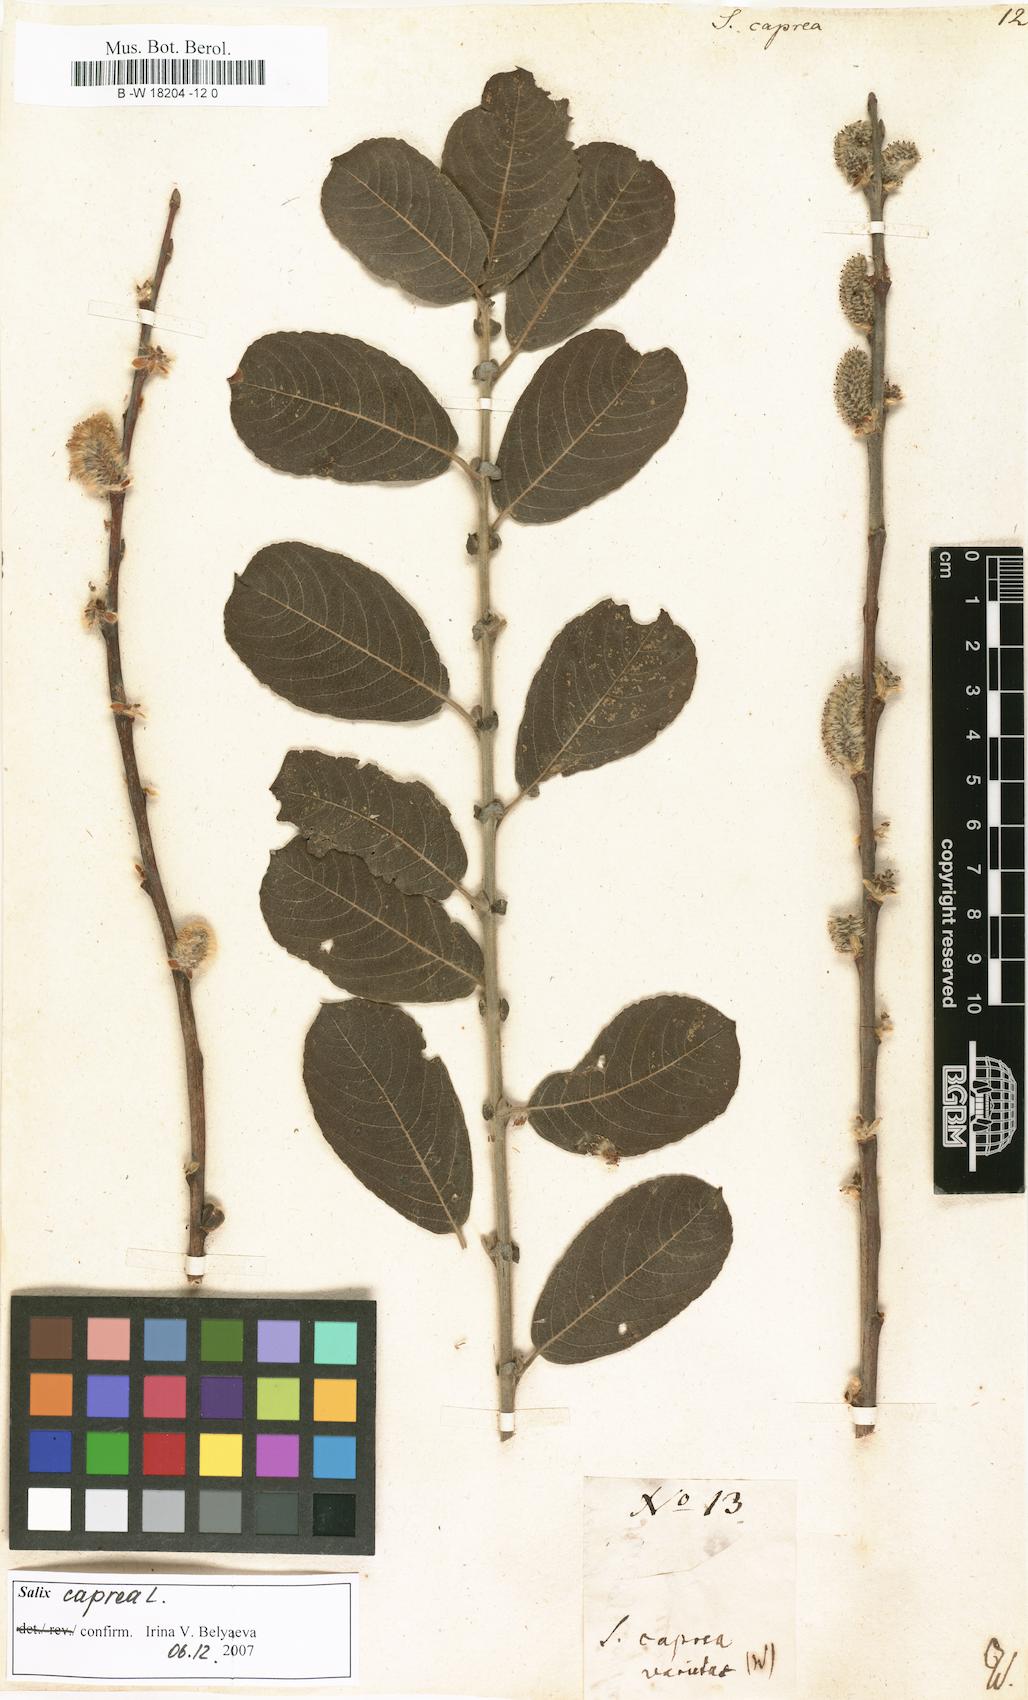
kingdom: Plantae
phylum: Tracheophyta
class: Magnoliopsida
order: Malpighiales
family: Salicaceae
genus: Salix
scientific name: Salix caprea
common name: Goat willow
